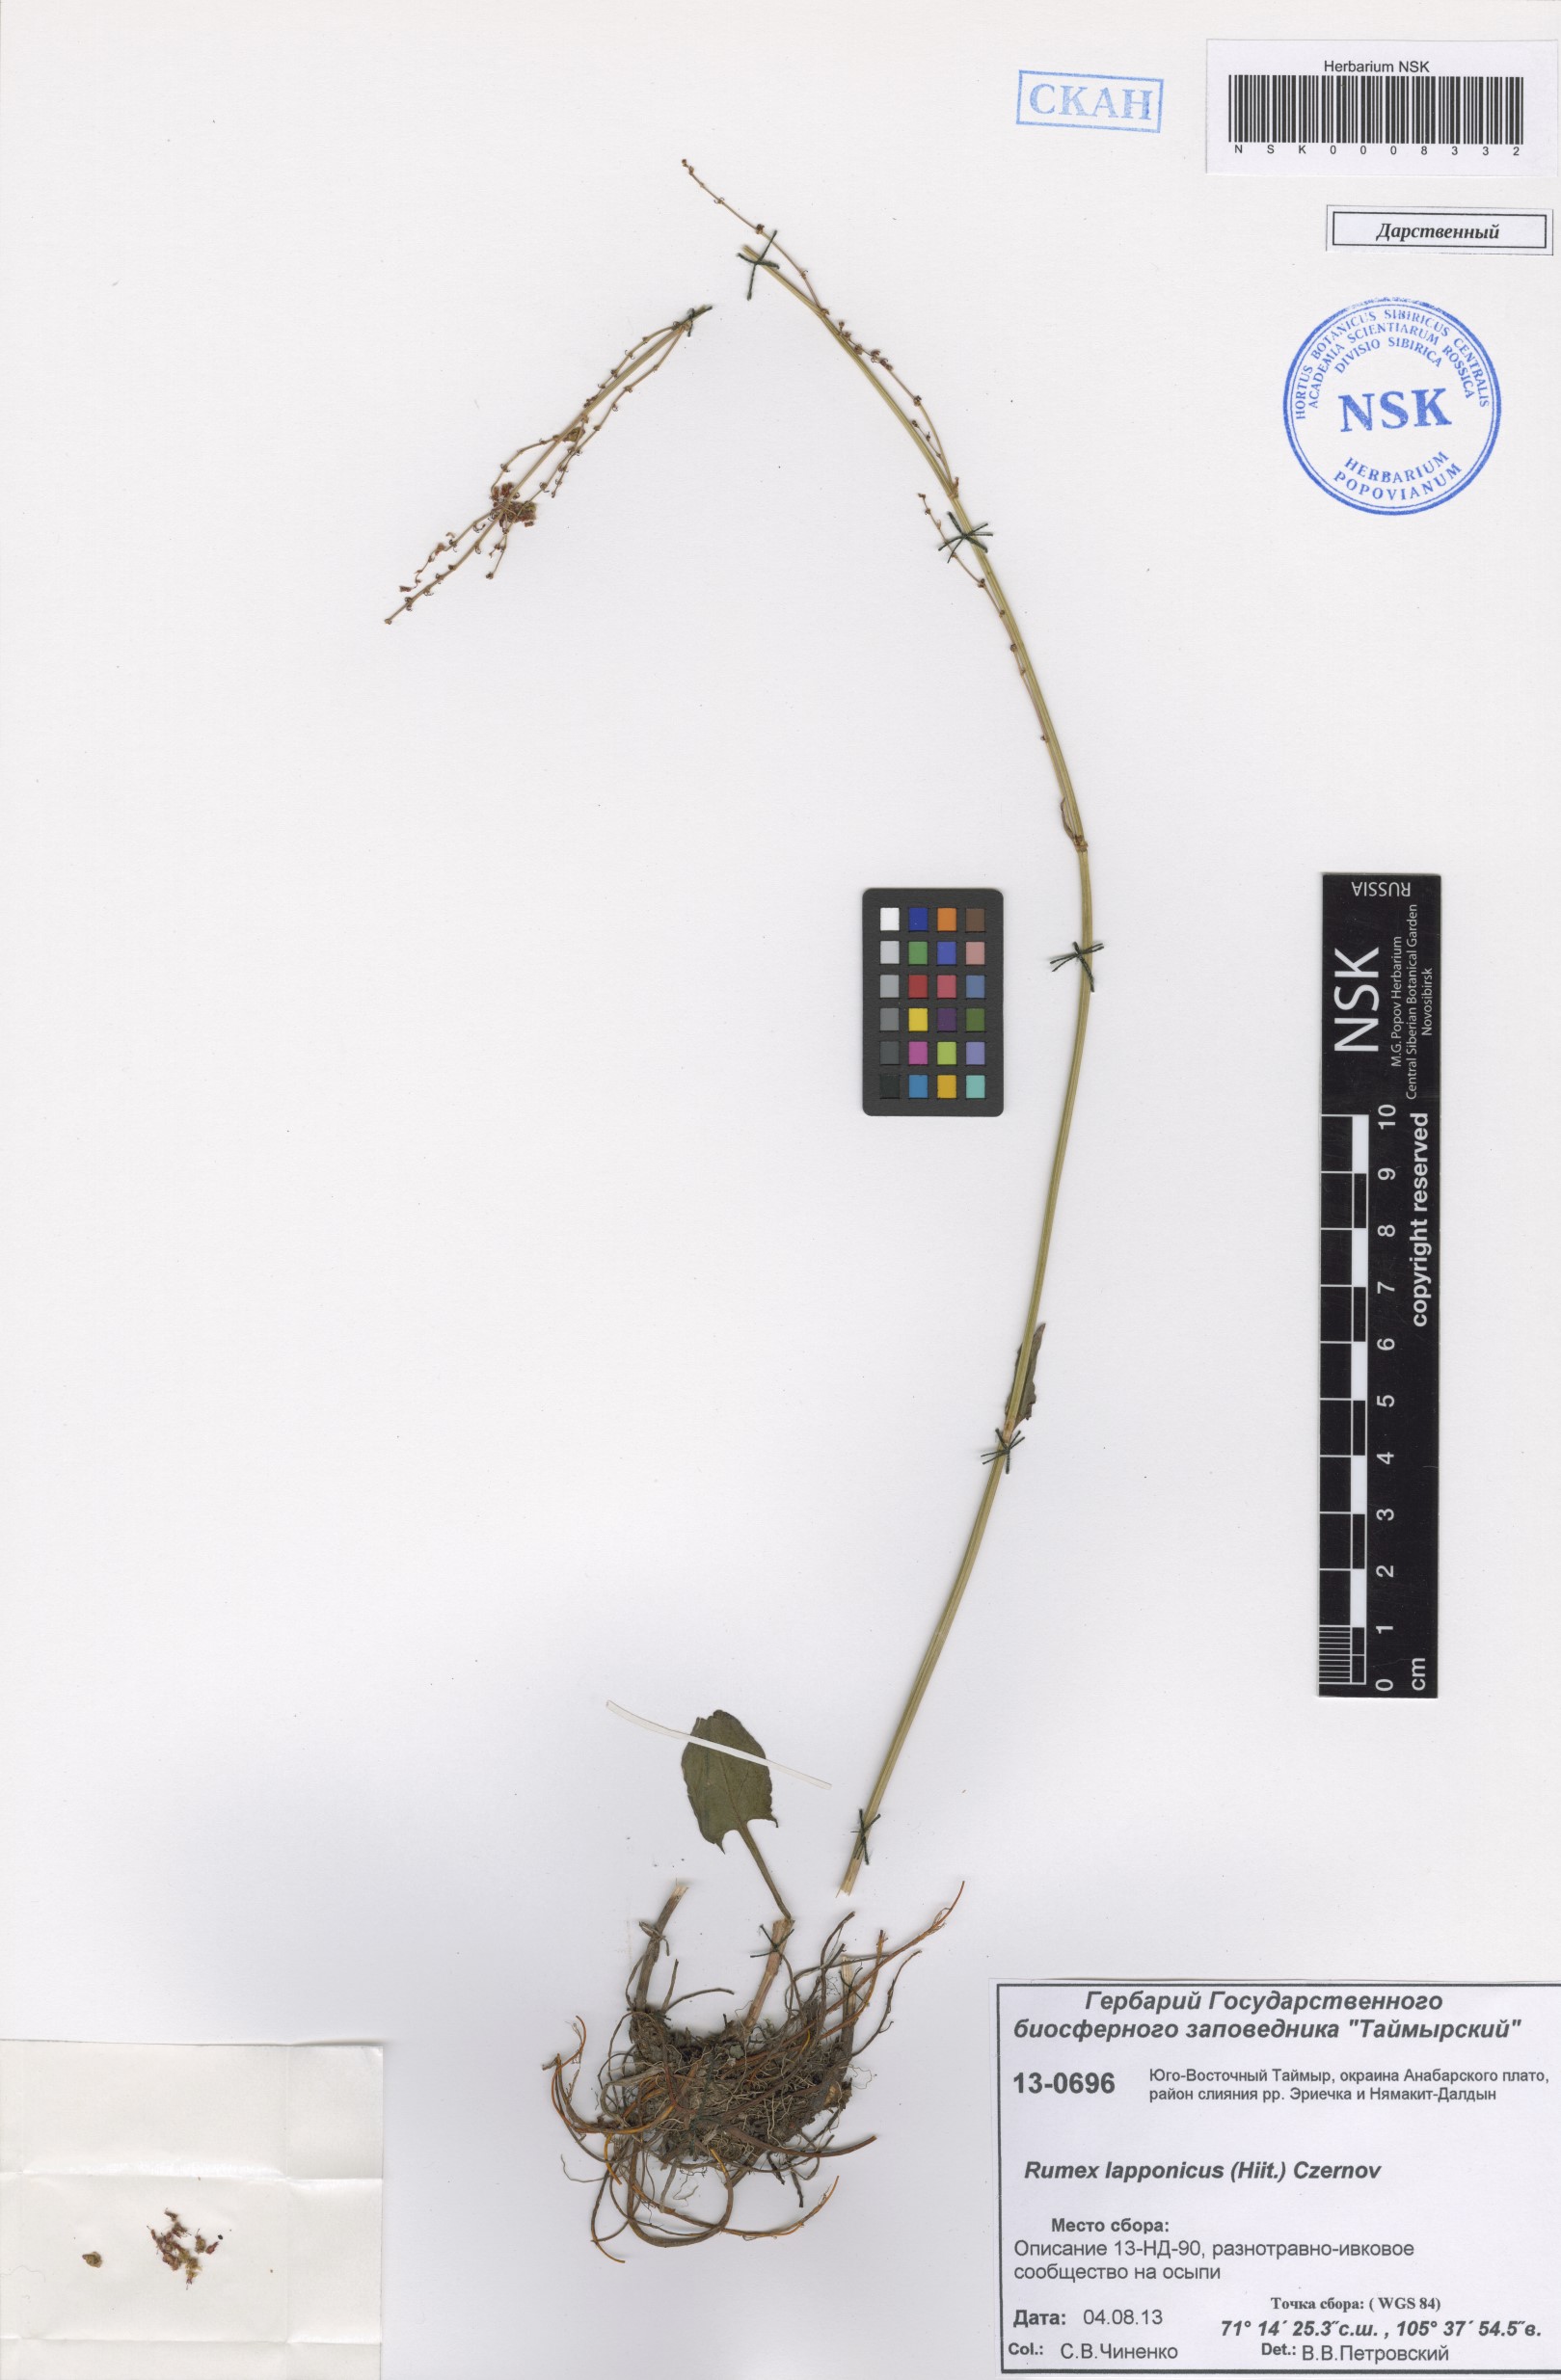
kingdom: Plantae
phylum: Tracheophyta
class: Magnoliopsida
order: Caryophyllales
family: Polygonaceae
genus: Rumex
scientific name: Rumex lapponicus
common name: Lapland mountain sorrel
